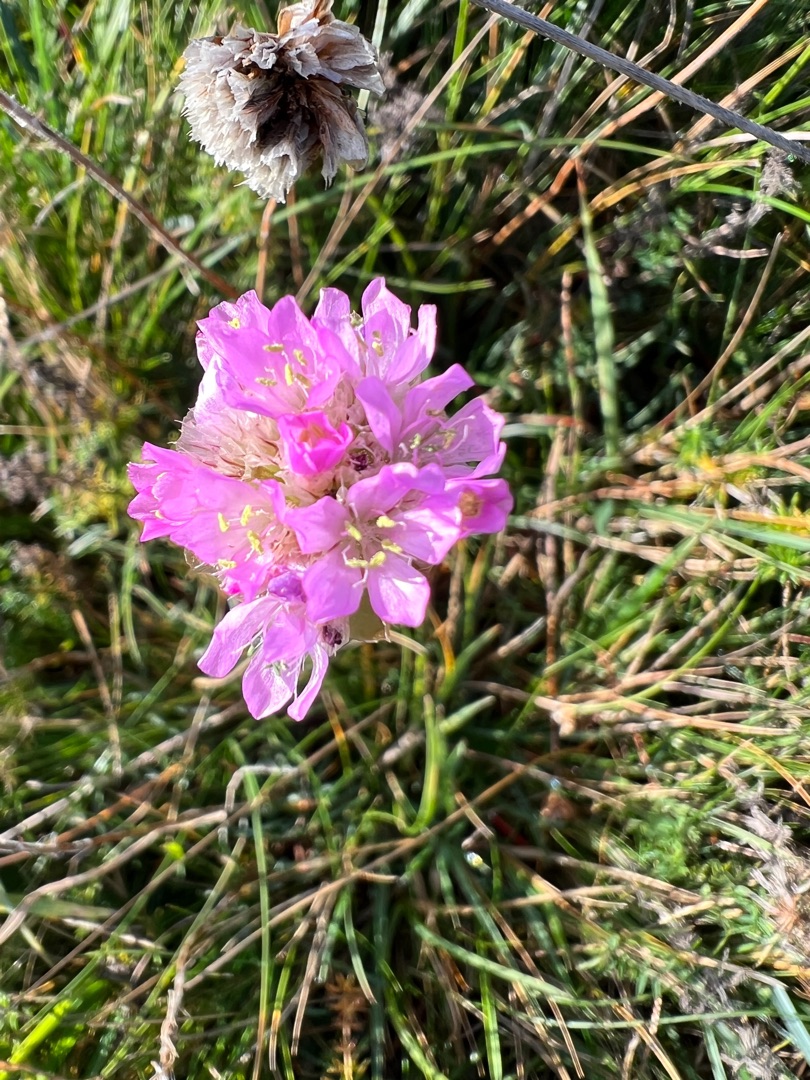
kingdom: Plantae
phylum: Tracheophyta
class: Magnoliopsida
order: Caryophyllales
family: Plumbaginaceae
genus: Armeria
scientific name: Armeria maritima
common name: Engelskgræs
